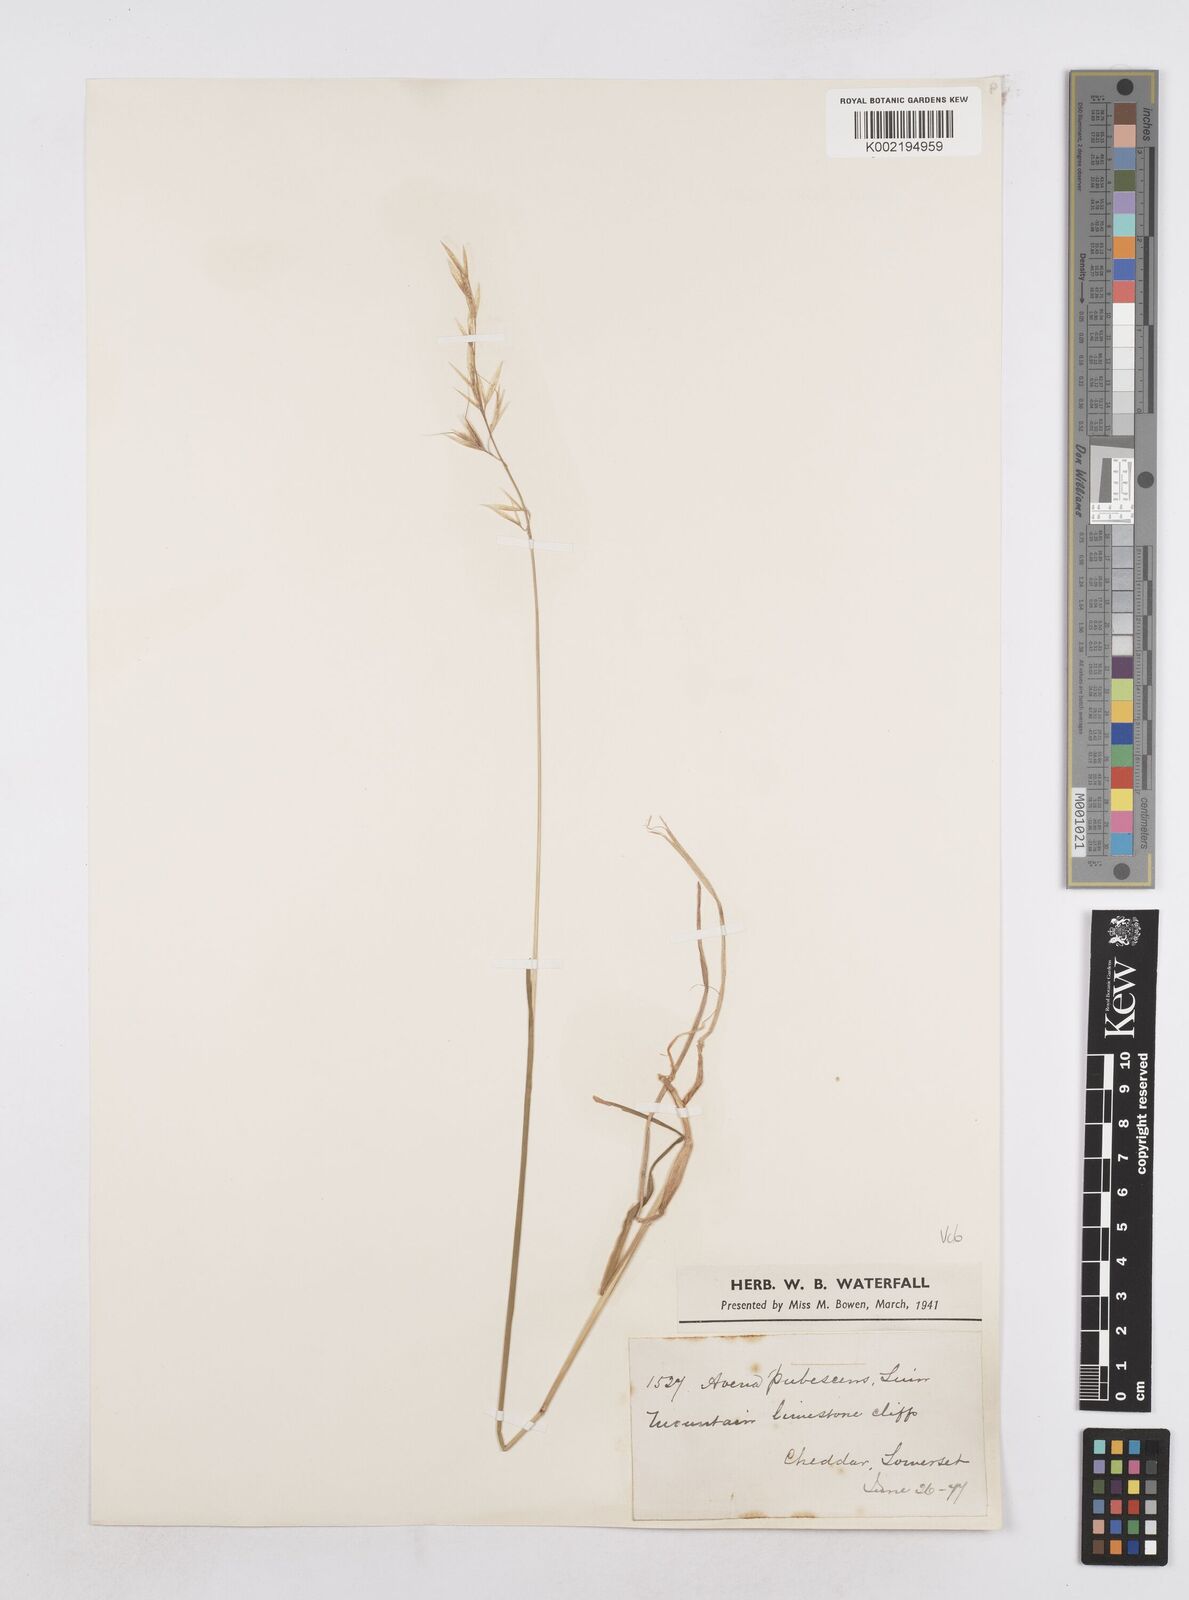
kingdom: Plantae
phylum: Tracheophyta
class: Liliopsida
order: Poales
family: Poaceae
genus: Helictochloa
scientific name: Helictochloa pratensis
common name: Meadow oat grass
